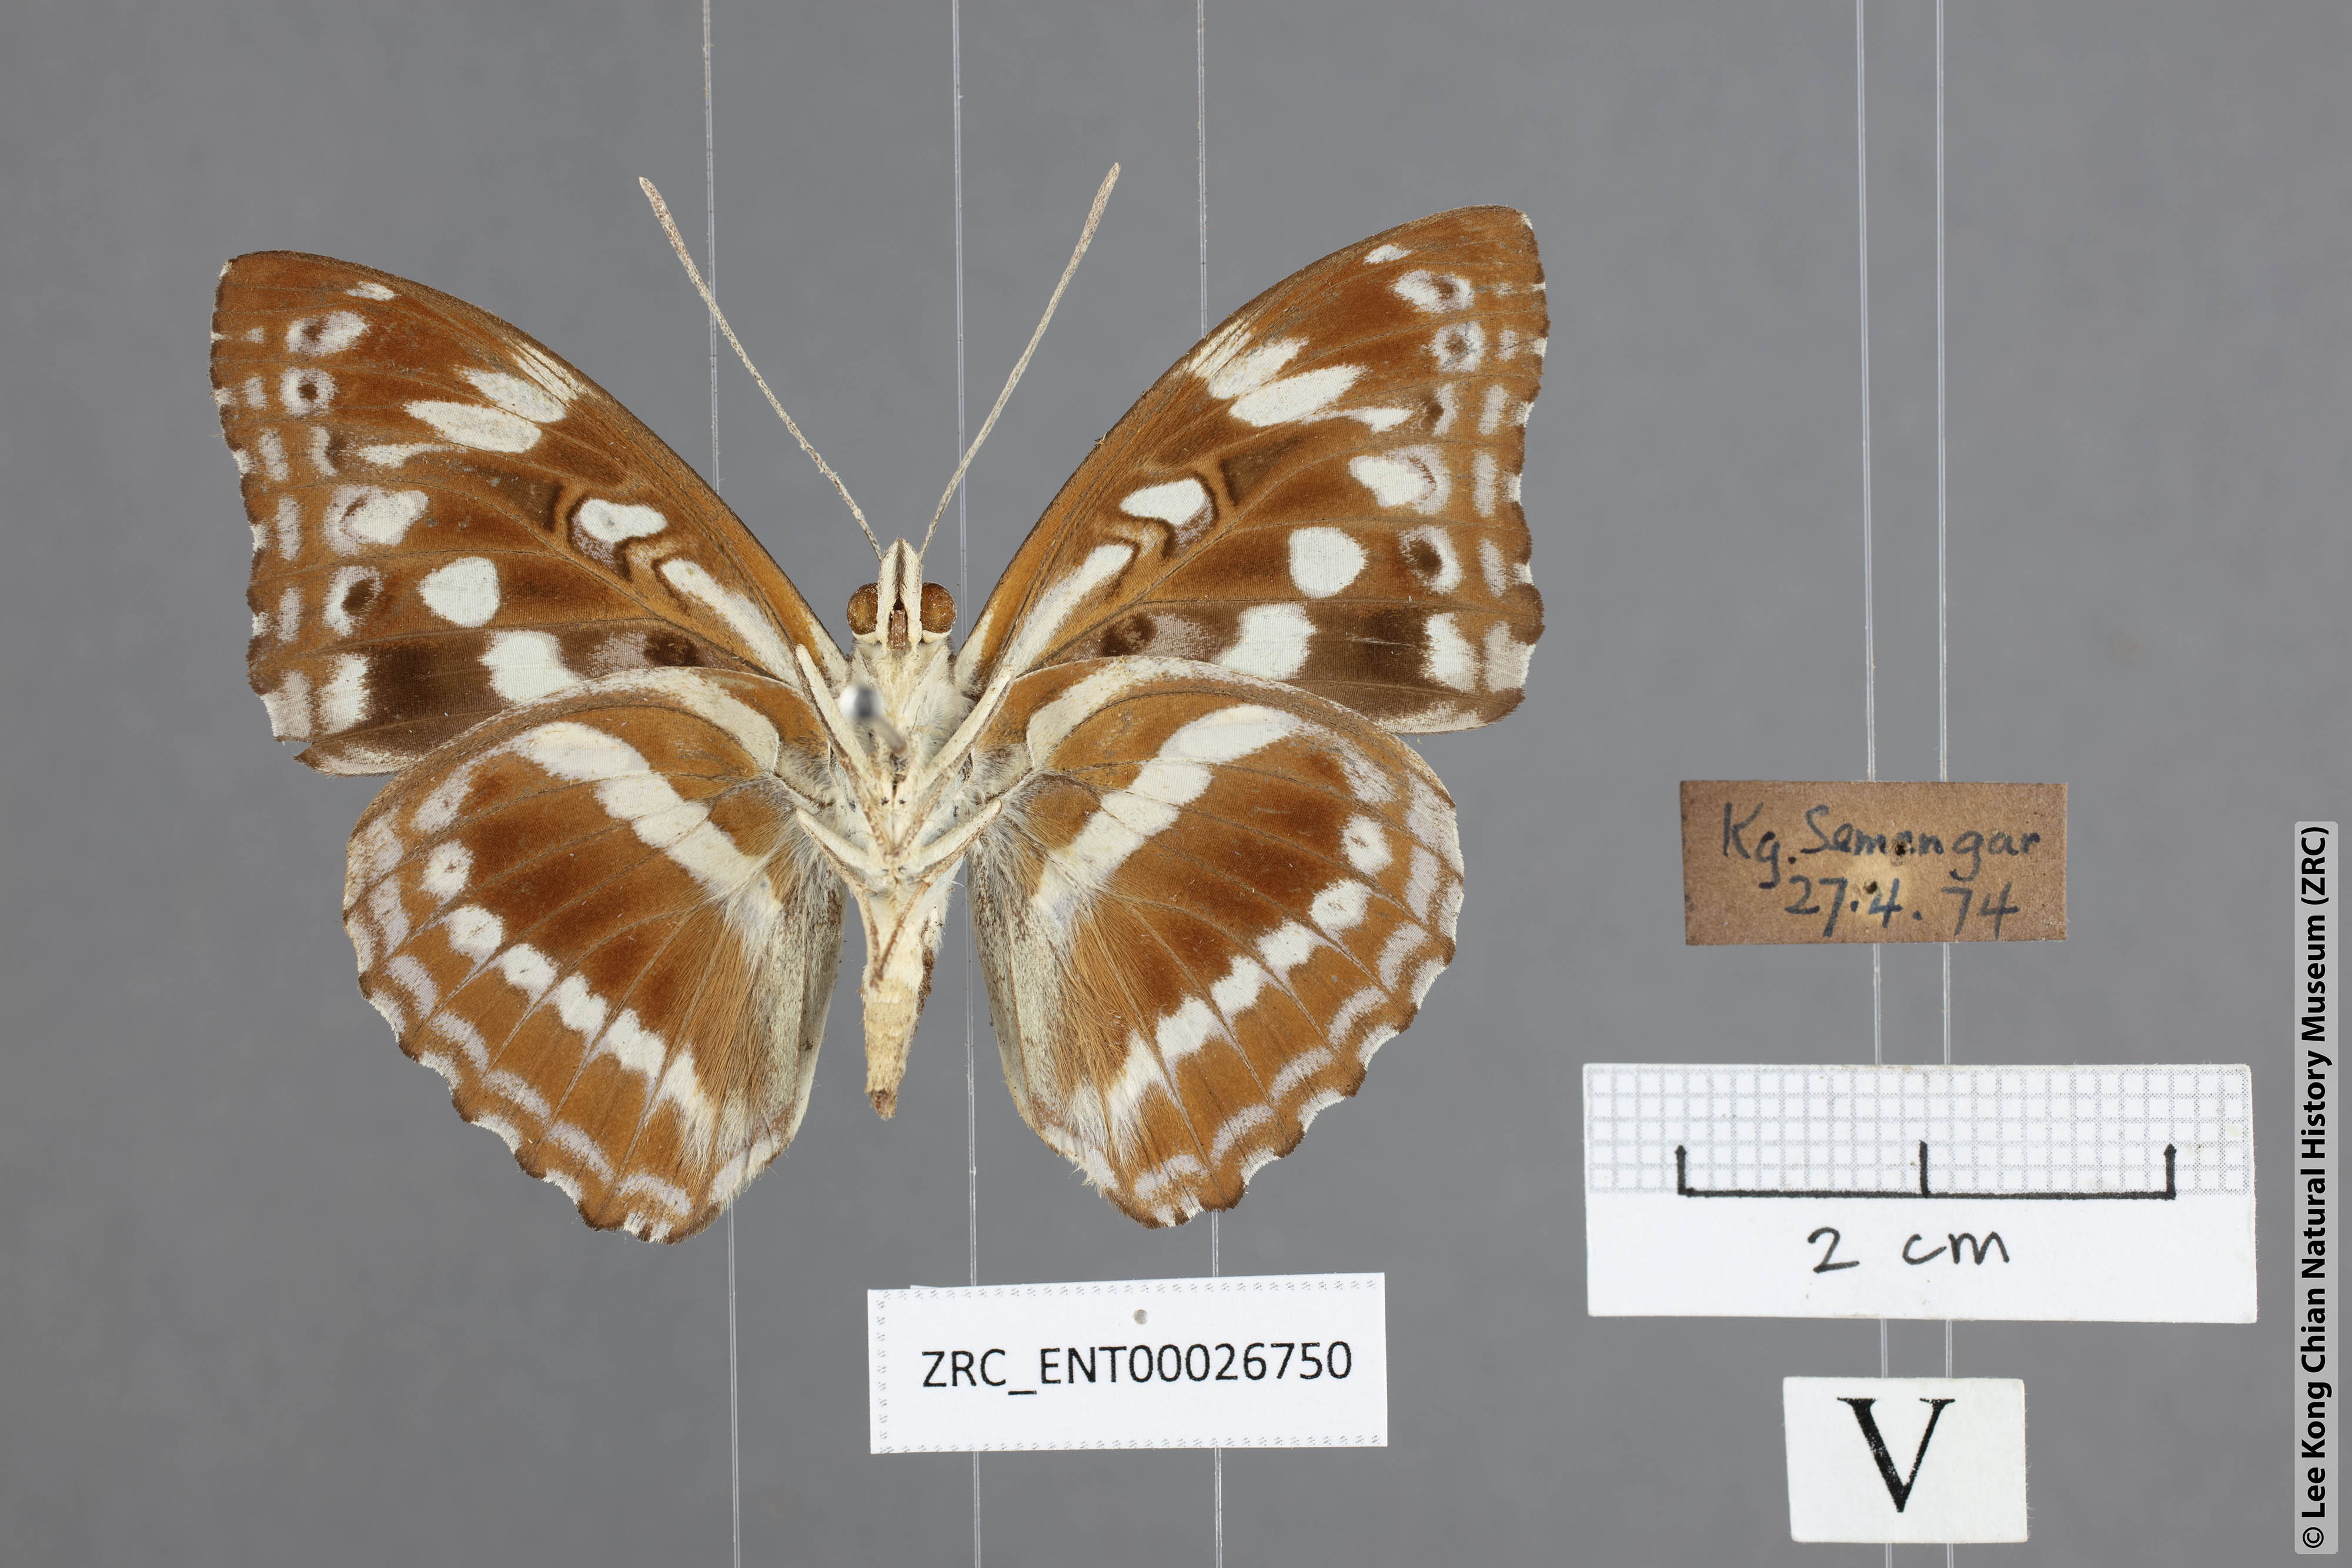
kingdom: Animalia
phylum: Arthropoda
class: Insecta
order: Lepidoptera
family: Nymphalidae
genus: Parathyma
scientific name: Parathyma asura
